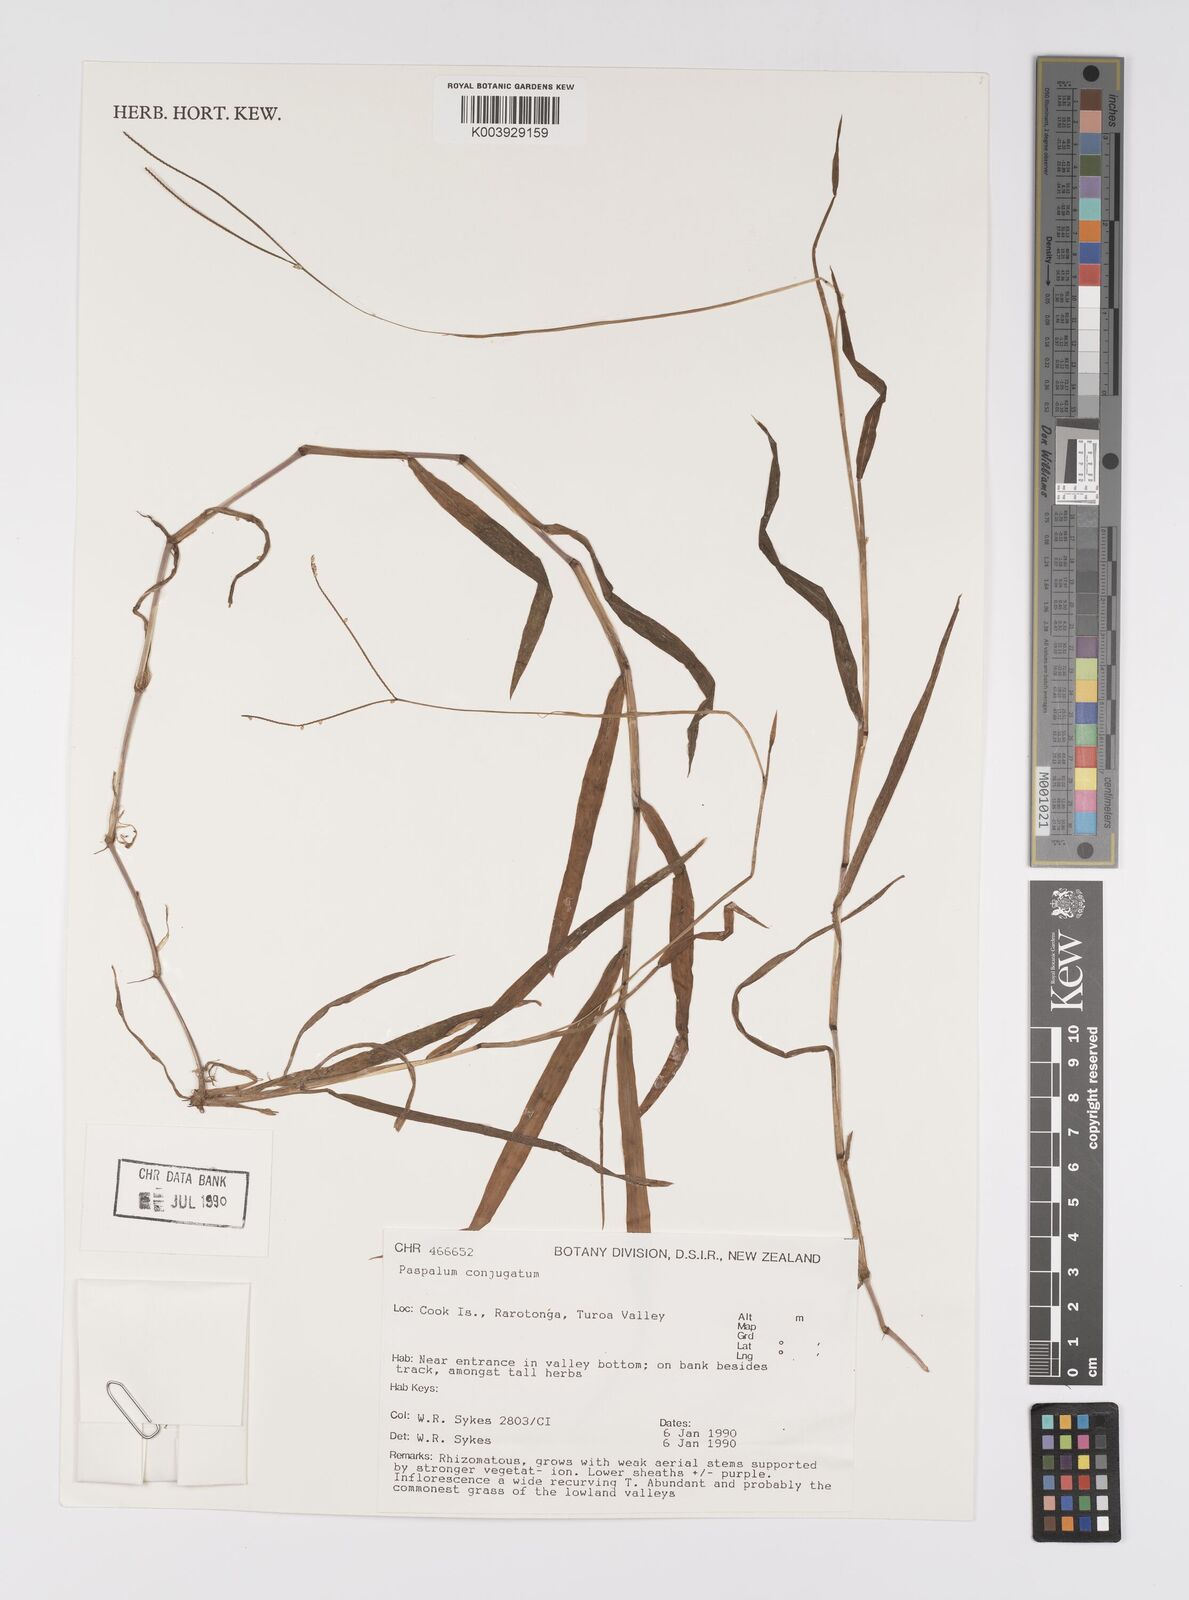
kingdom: Plantae
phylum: Tracheophyta
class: Liliopsida
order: Poales
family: Poaceae
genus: Paspalum
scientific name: Paspalum conjugatum
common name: Hilograss
